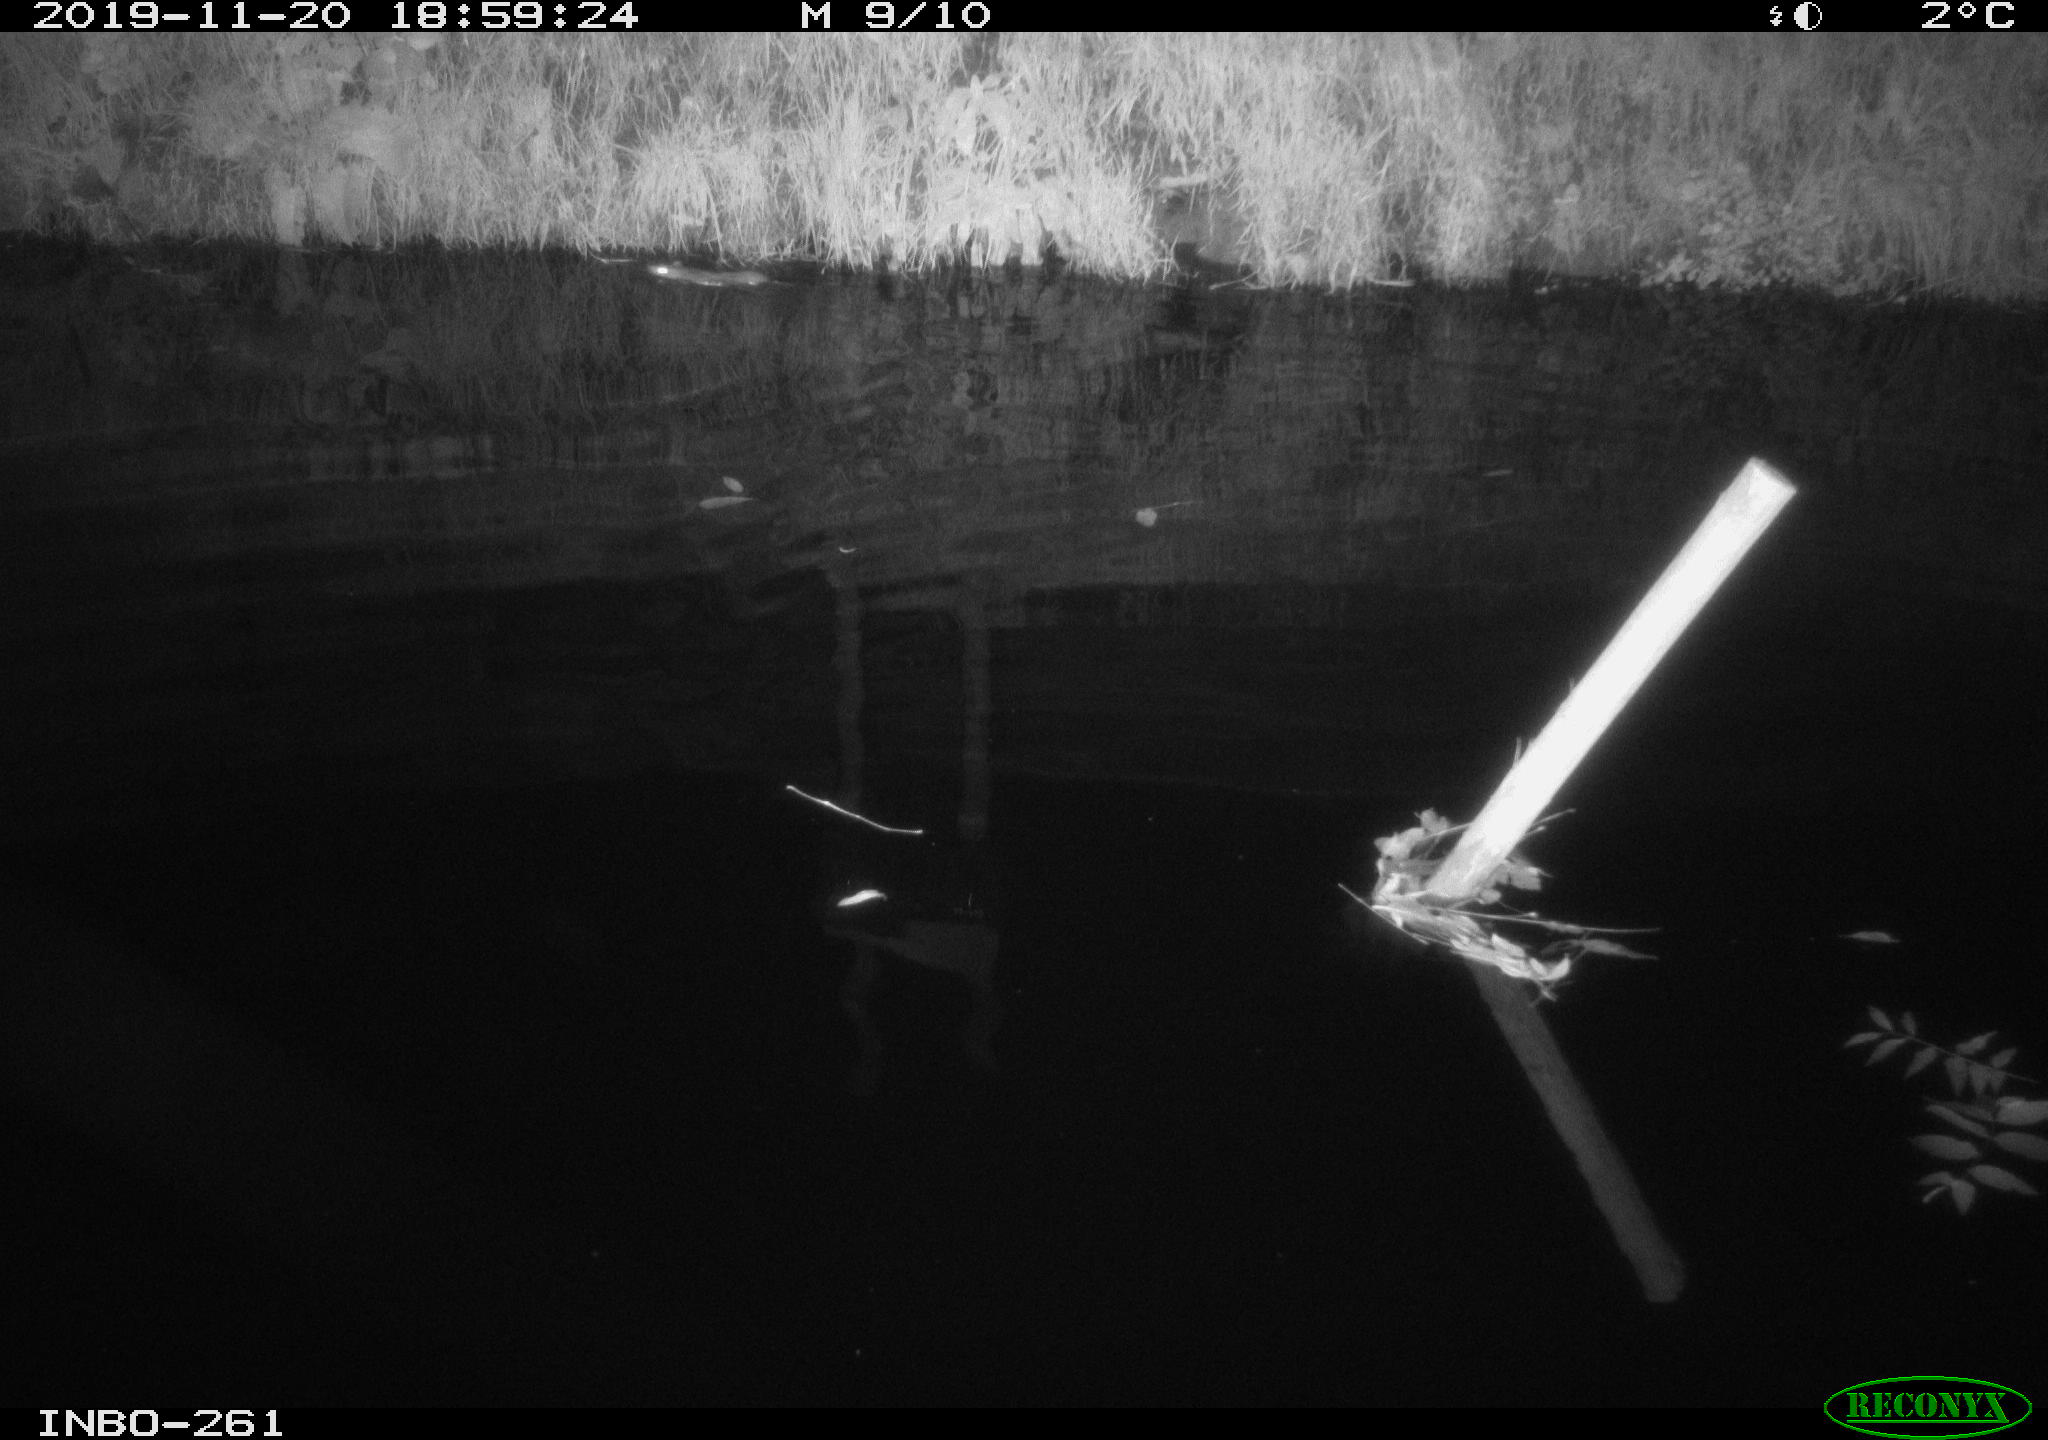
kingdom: Animalia
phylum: Chordata
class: Mammalia
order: Rodentia
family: Muridae
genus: Rattus
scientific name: Rattus norvegicus
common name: Brown rat
